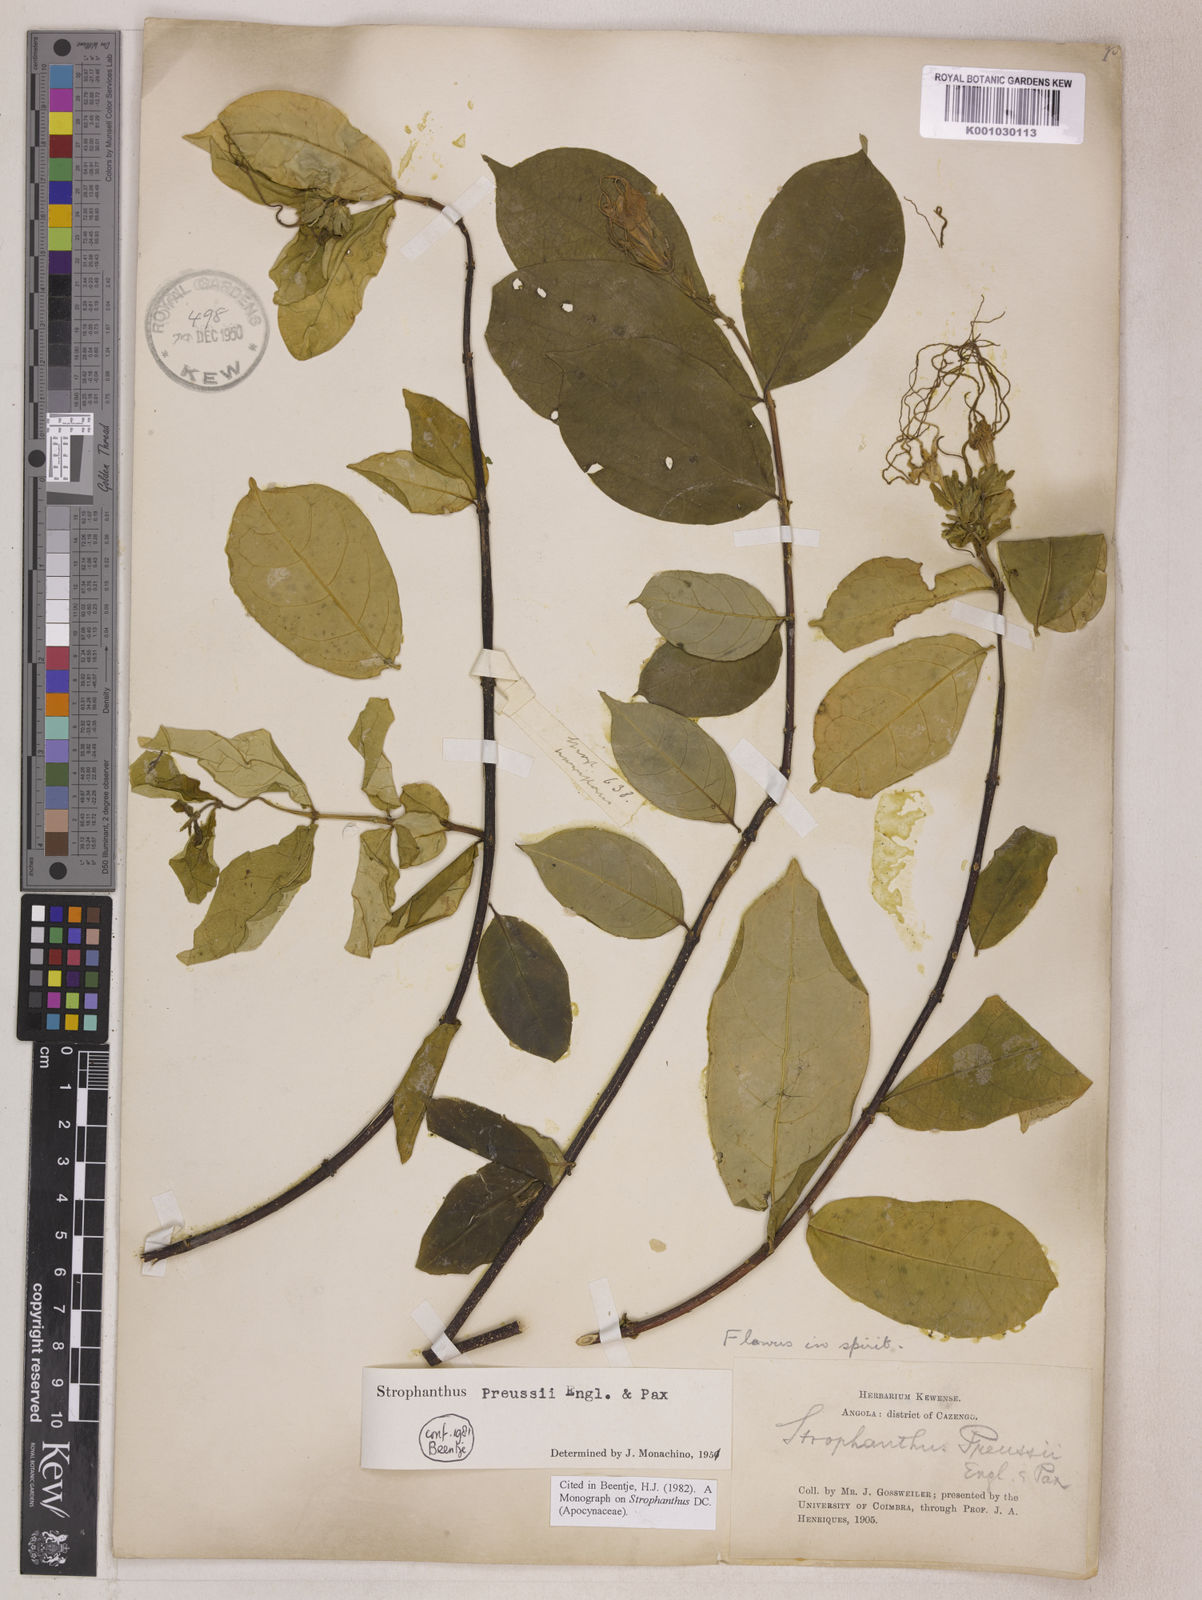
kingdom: Plantae
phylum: Tracheophyta
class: Magnoliopsida
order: Gentianales
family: Apocynaceae
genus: Strophanthus
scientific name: Strophanthus preussii
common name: Medisa-flower
